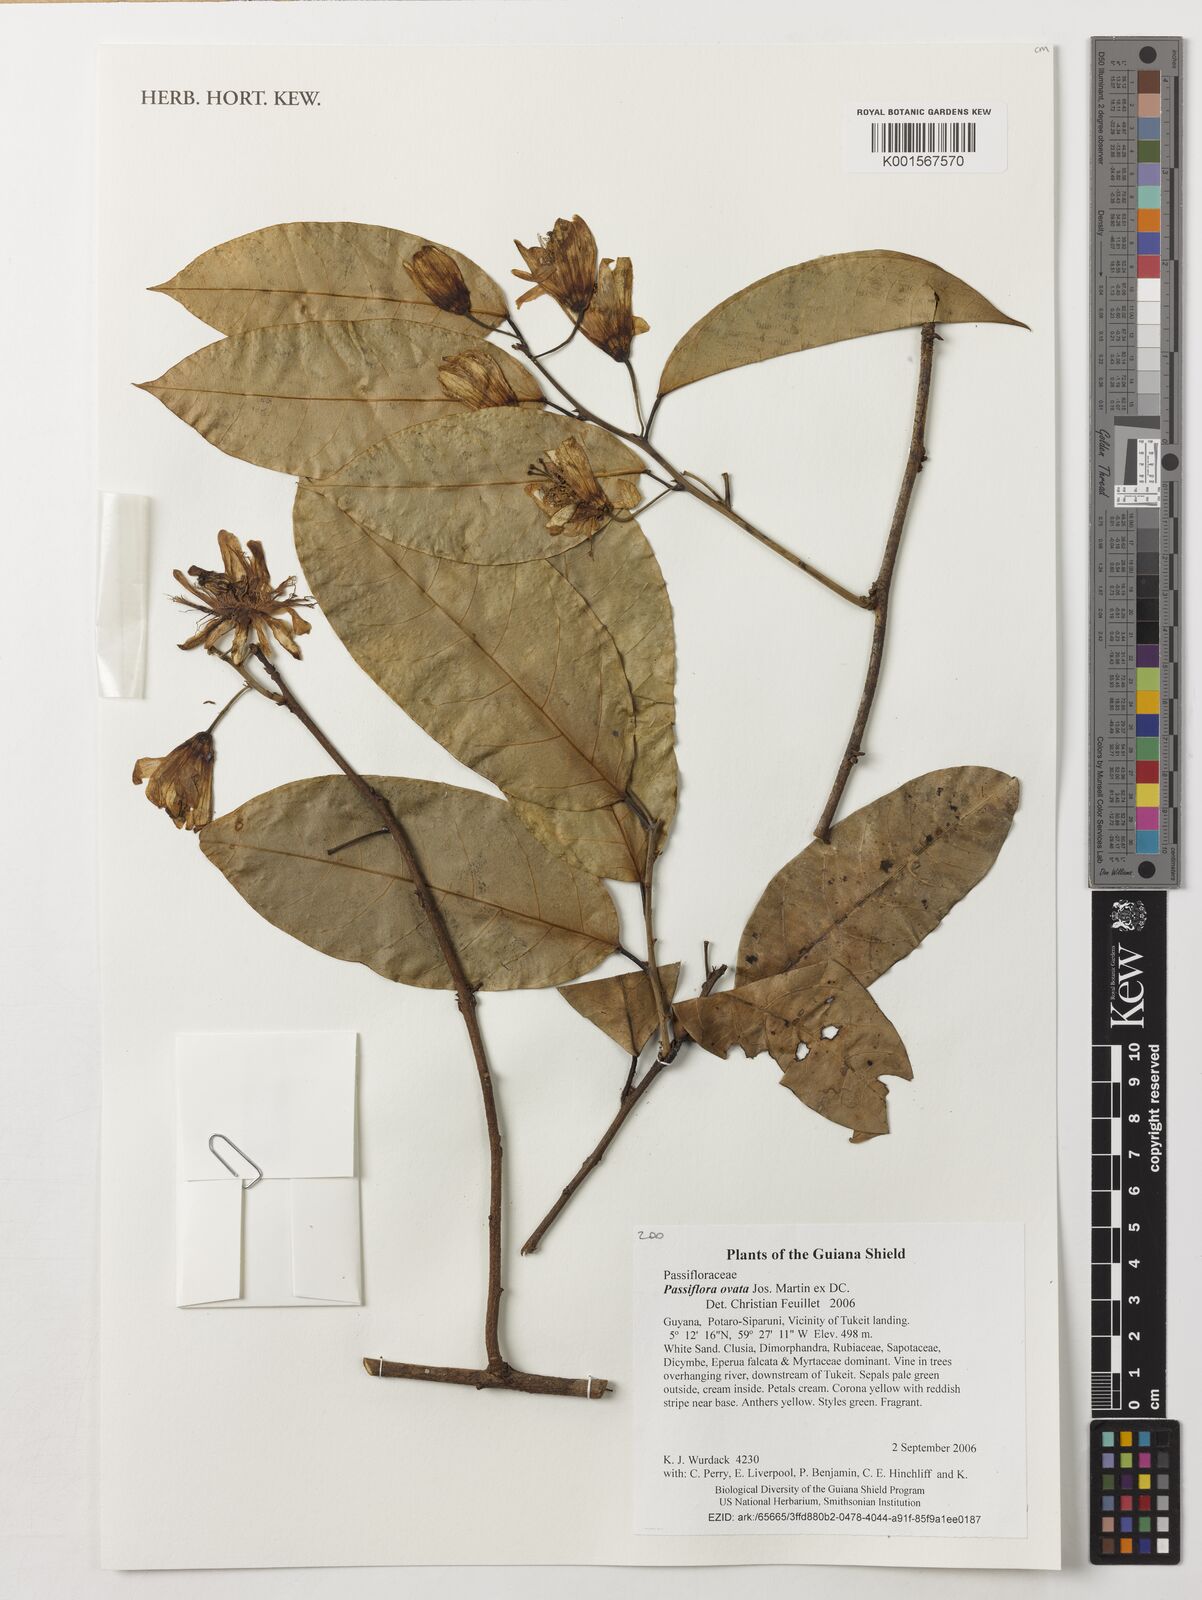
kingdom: Plantae
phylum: Tracheophyta
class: Magnoliopsida
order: Malpighiales
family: Passifloraceae
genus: Passiflora
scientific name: Passiflora ovata
